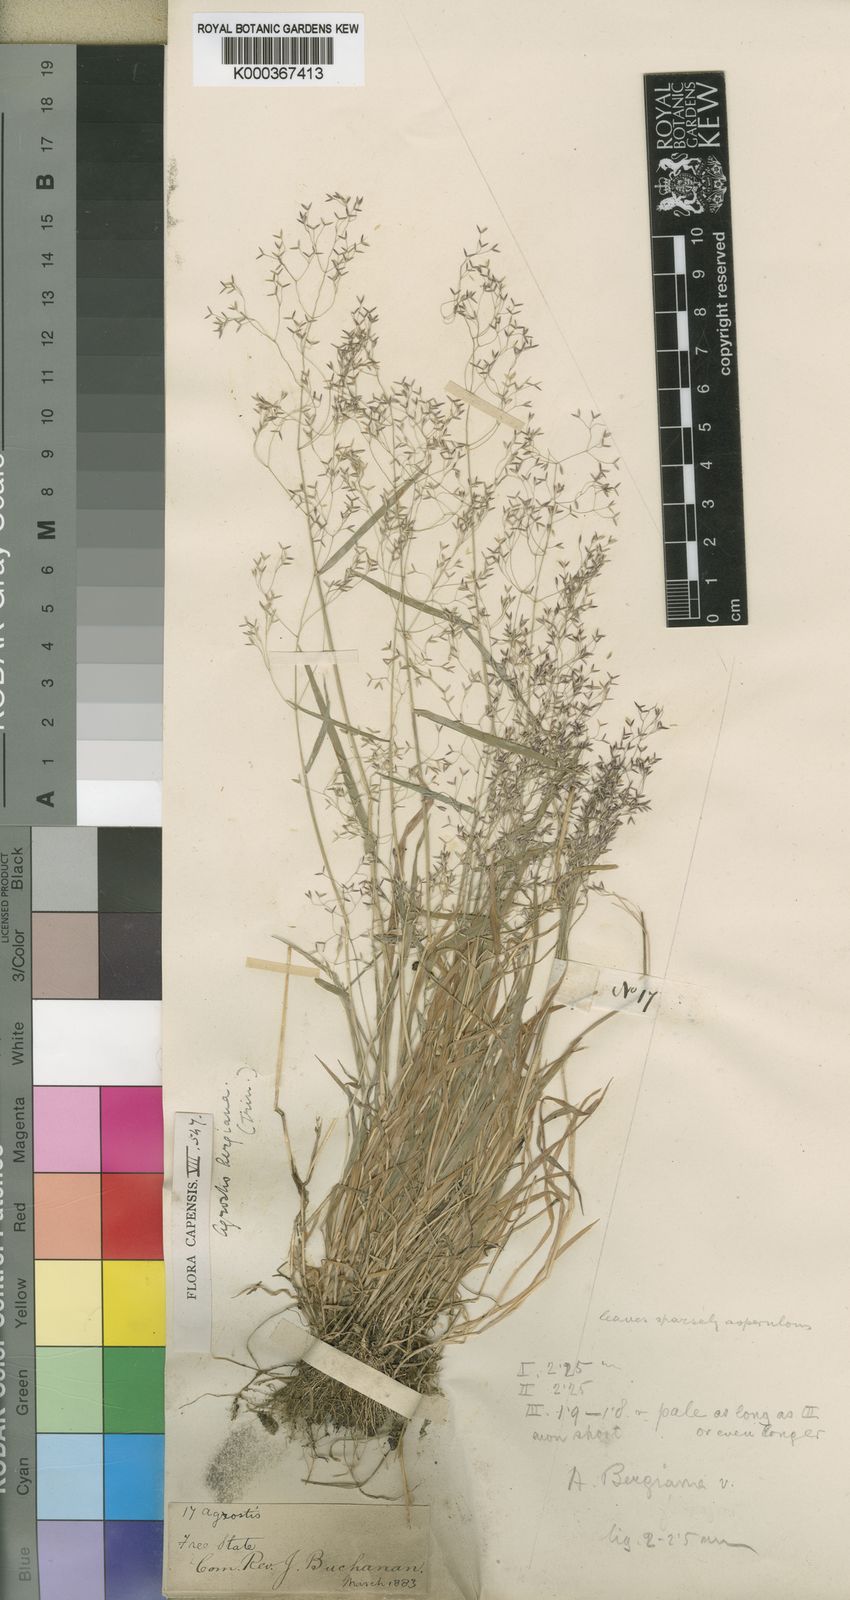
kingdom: Plantae
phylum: Tracheophyta
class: Liliopsida
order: Poales
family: Poaceae
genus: Agrostis
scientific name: Agrostis bergiana
